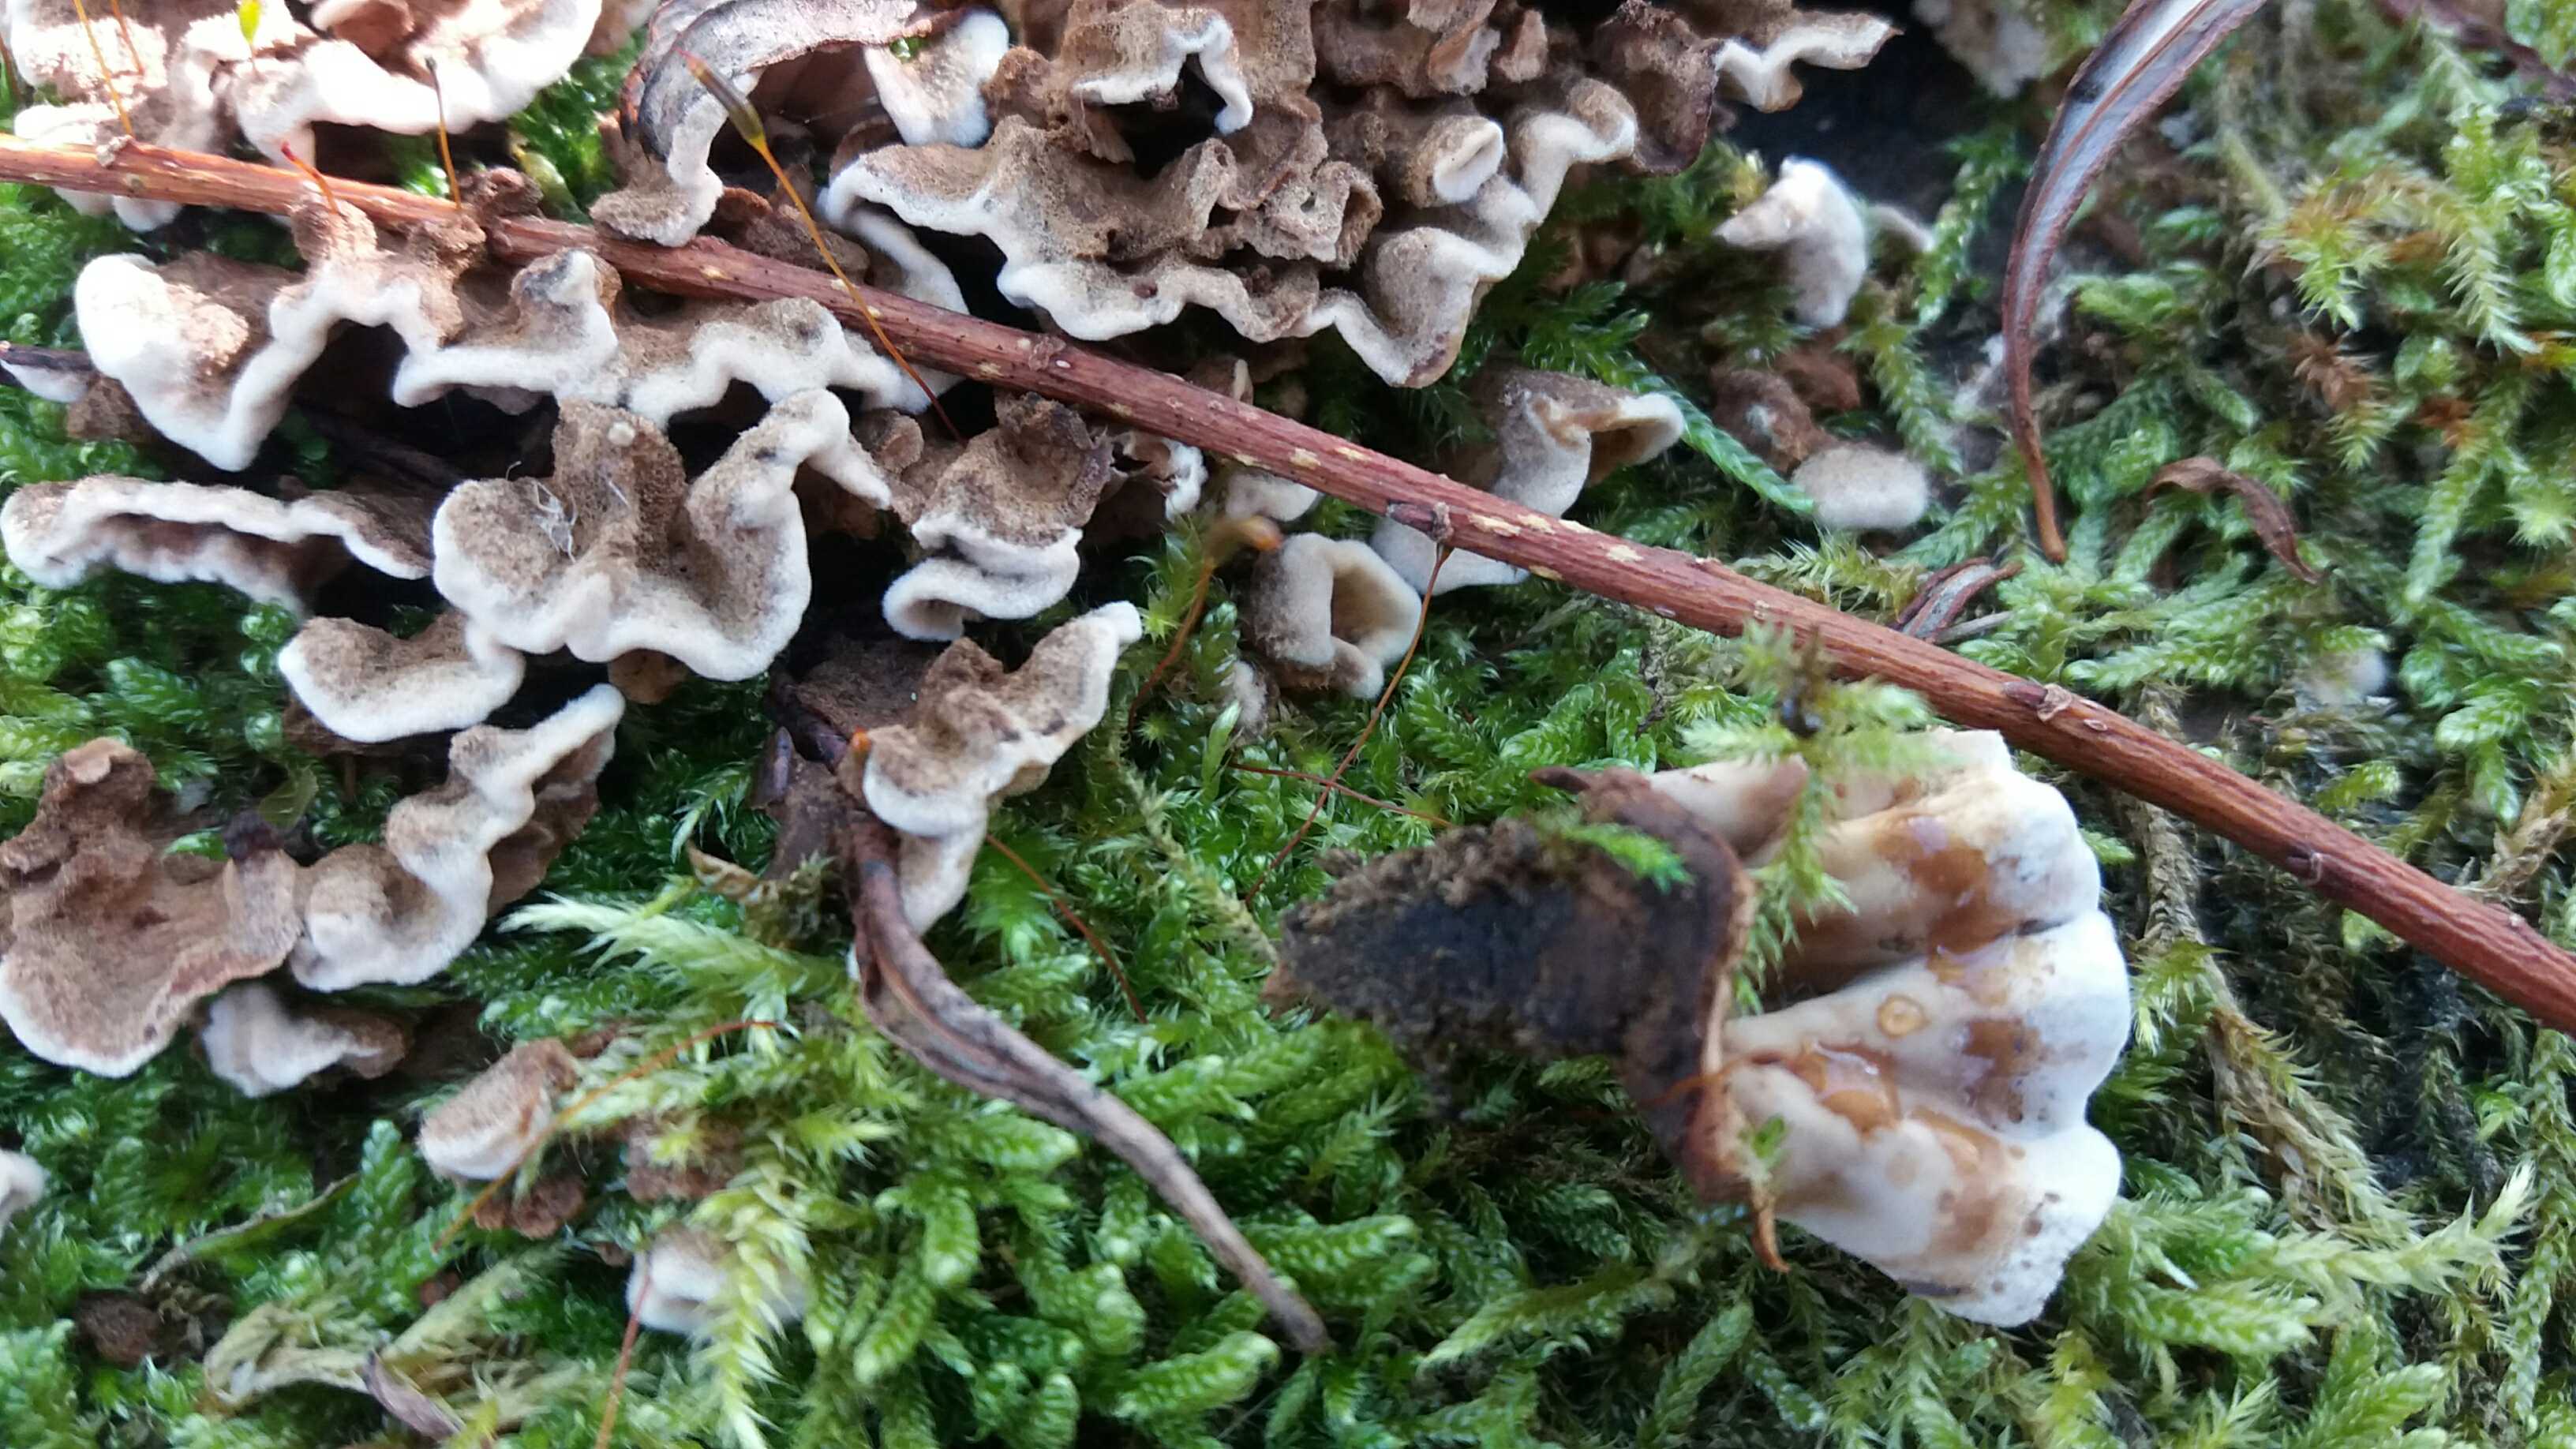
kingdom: Fungi
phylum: Basidiomycota
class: Agaricomycetes
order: Russulales
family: Hericiaceae
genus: Laxitextum
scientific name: Laxitextum bicolor
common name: tvefarvet filtskind
